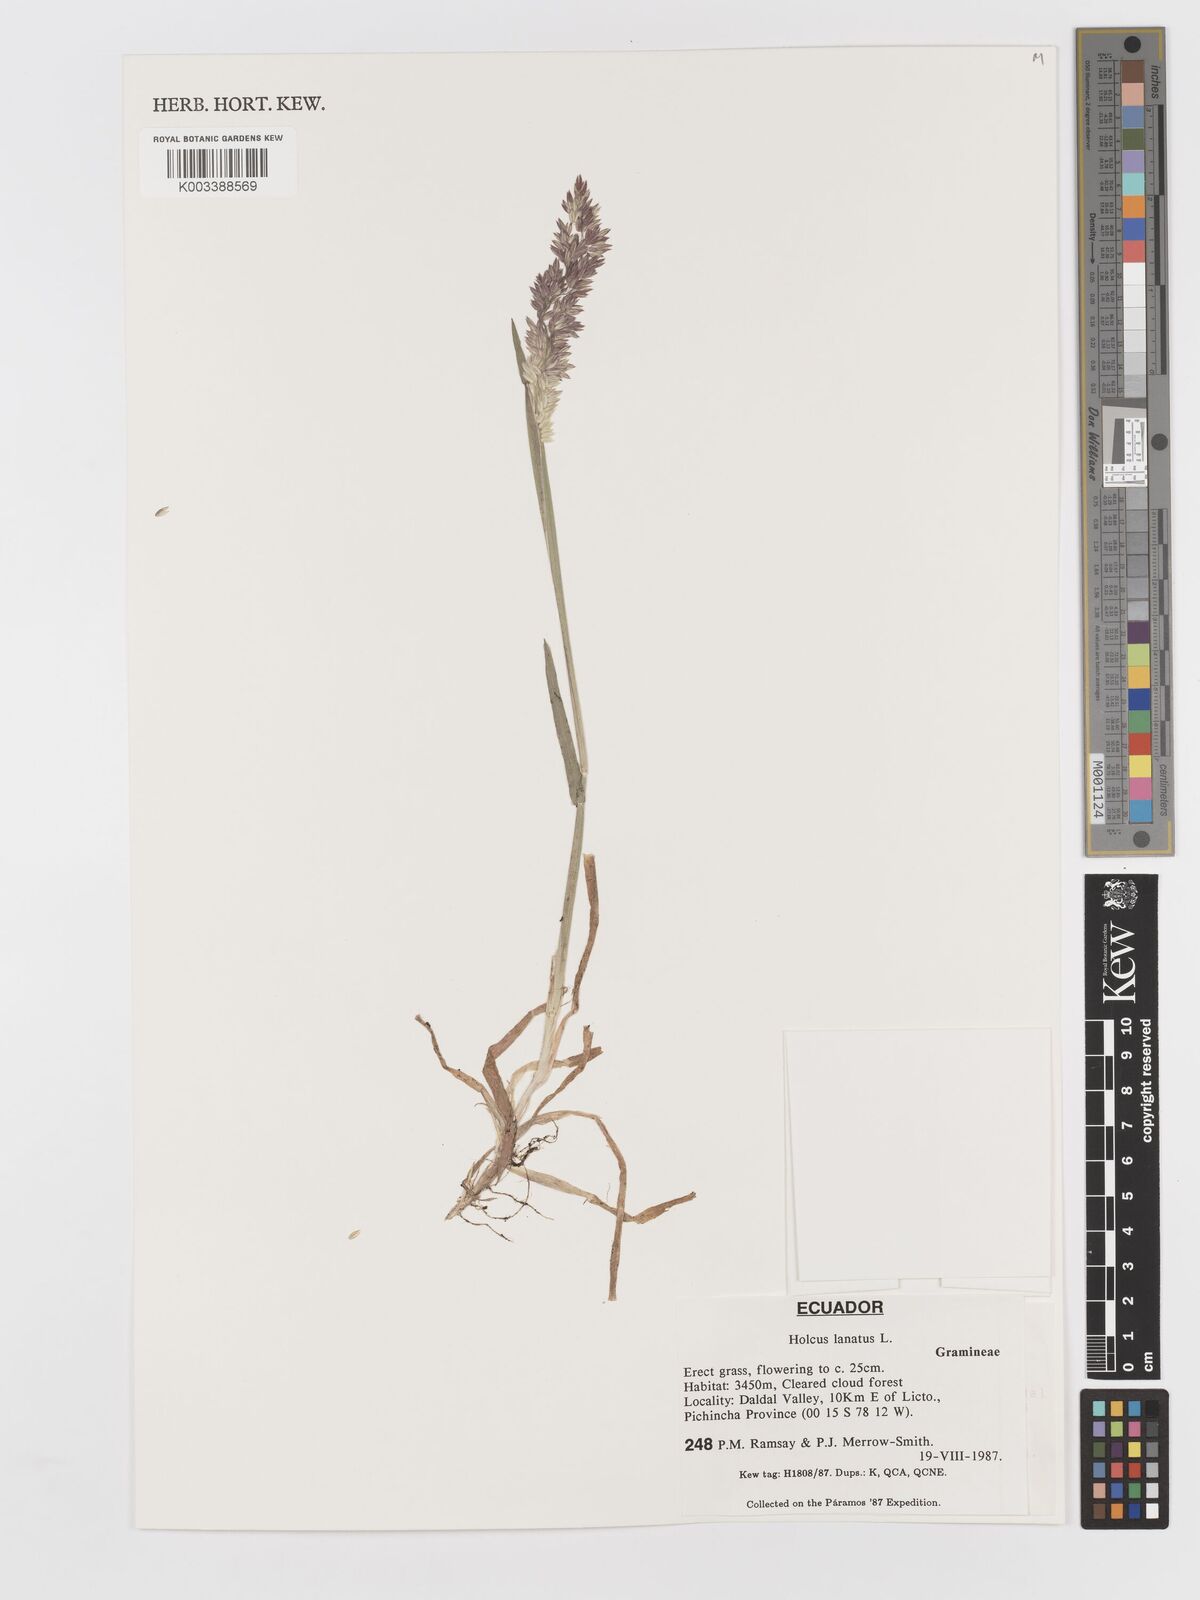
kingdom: Plantae
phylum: Tracheophyta
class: Liliopsida
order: Poales
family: Poaceae
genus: Holcus
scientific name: Holcus lanatus
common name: Yorkshire-fog
